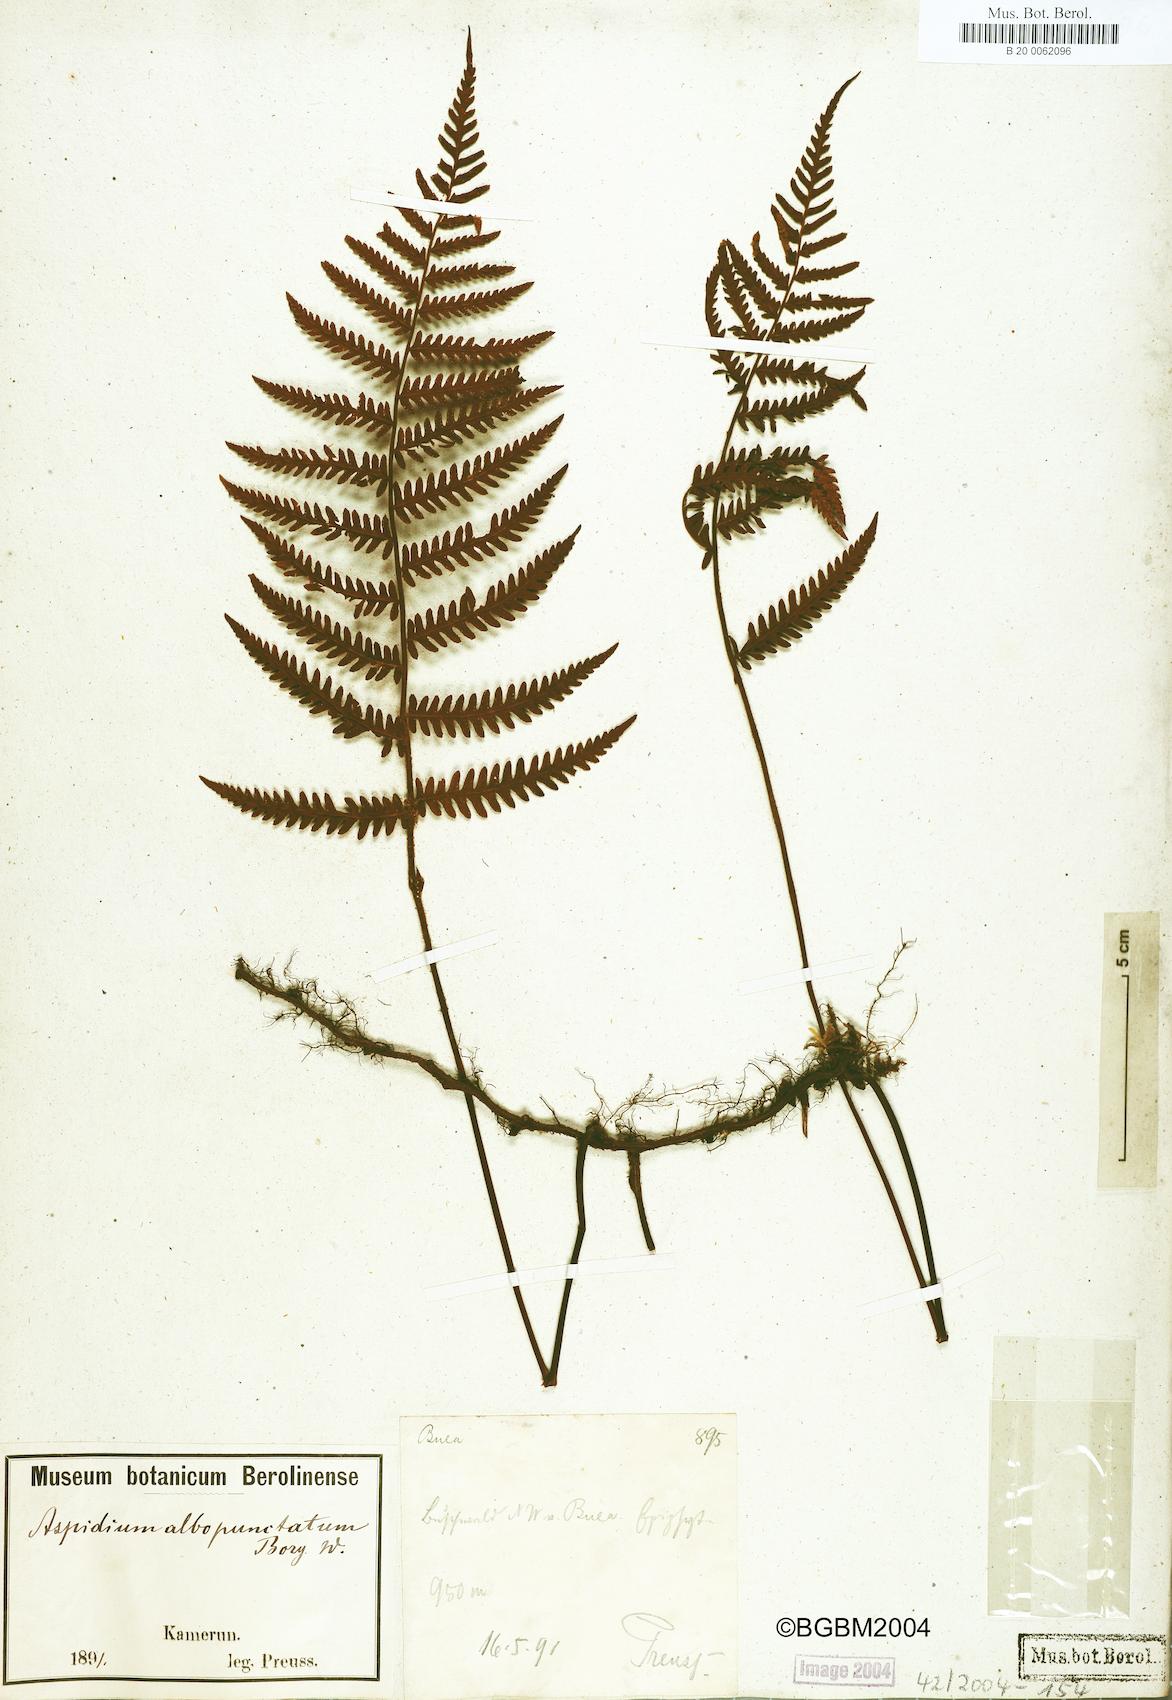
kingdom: Plantae
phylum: Tracheophyta
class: Polypodiopsida
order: Polypodiales
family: Tectariaceae
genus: Arthropteris
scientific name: Arthropteris orientalis
